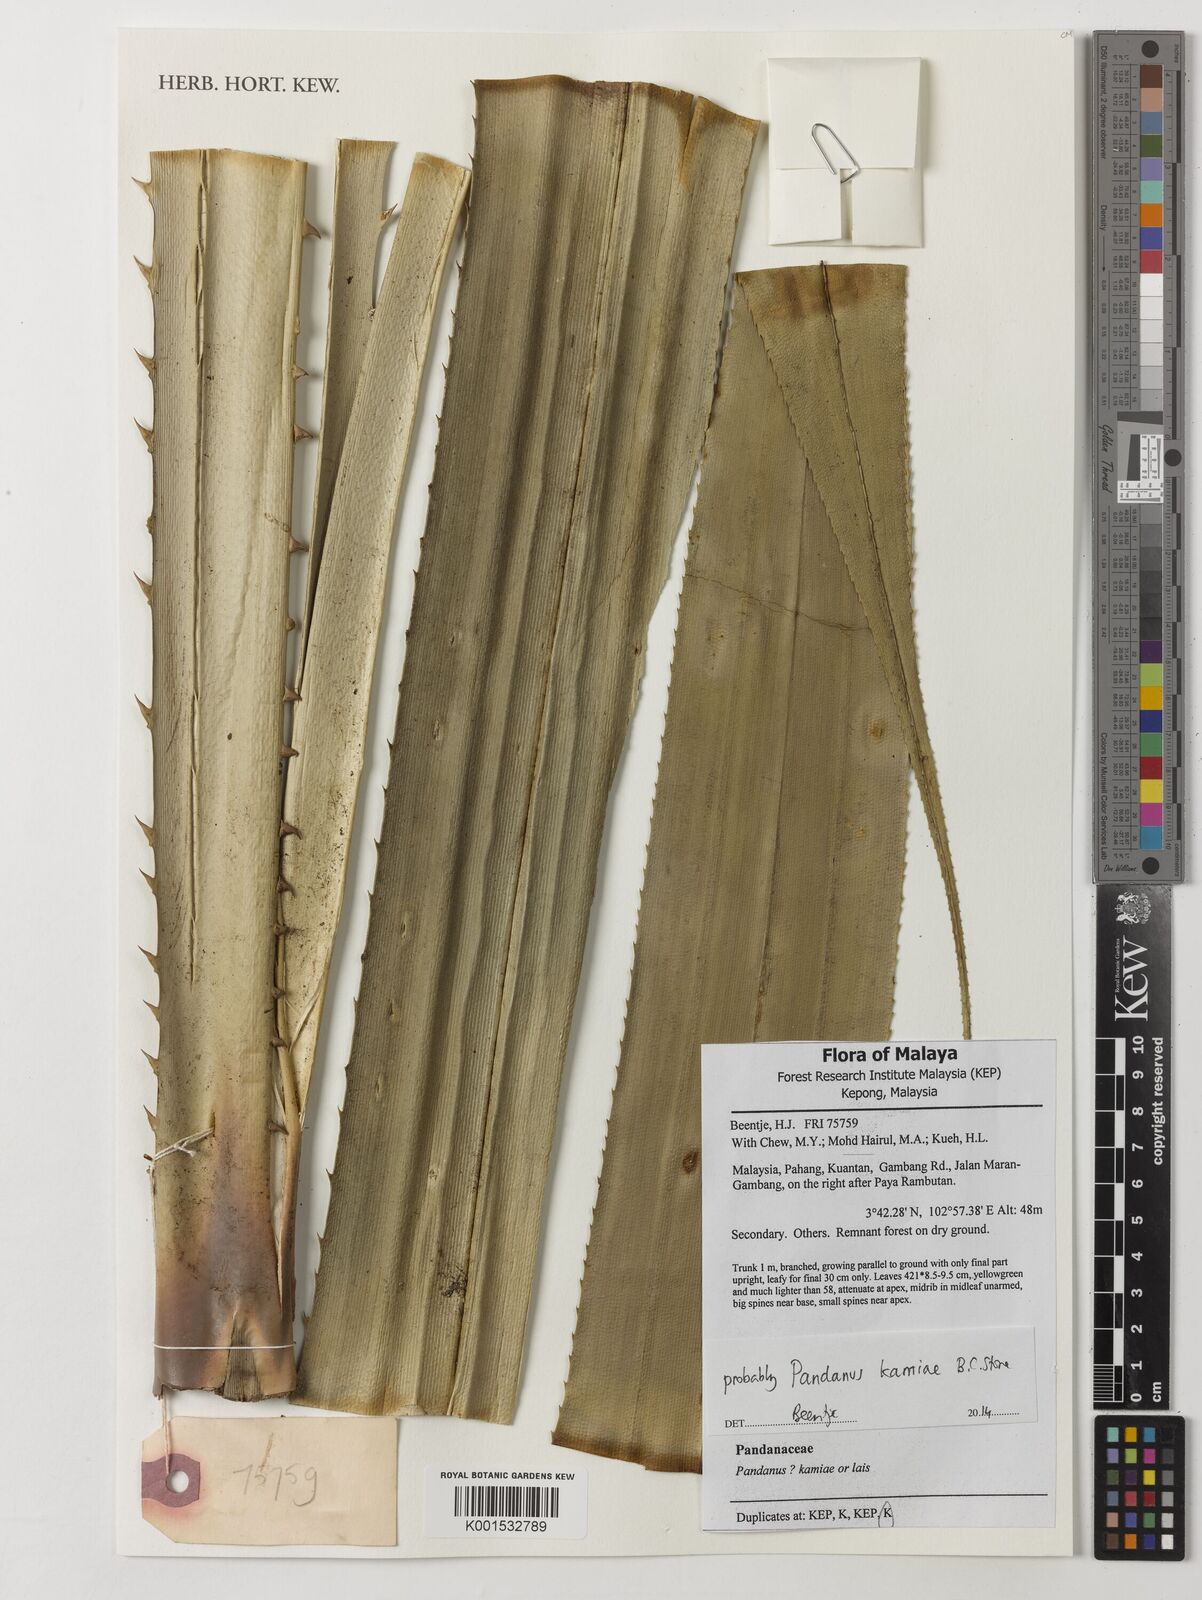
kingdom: Plantae
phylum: Tracheophyta
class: Liliopsida
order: Pandanales
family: Pandanaceae
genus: Pandanus
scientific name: Pandanus kamiae
